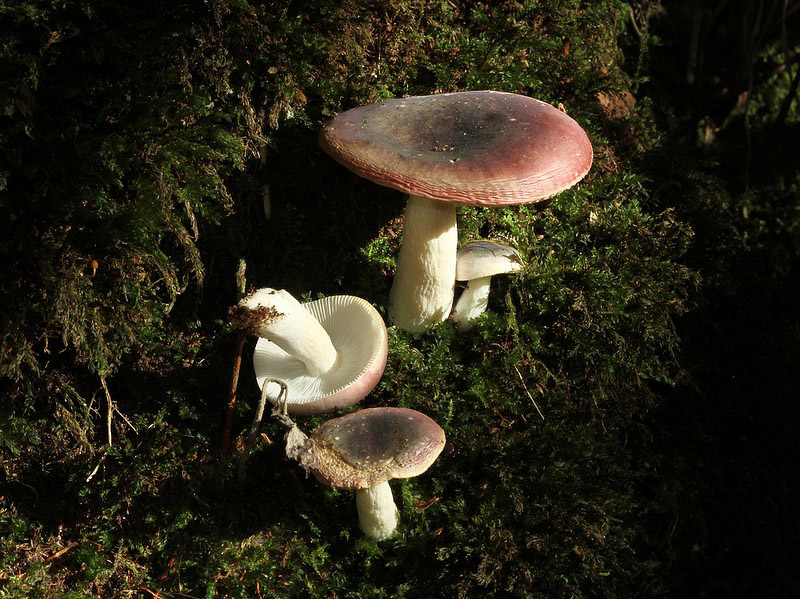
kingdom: Fungi
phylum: Basidiomycota
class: Agaricomycetes
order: Russulales
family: Russulaceae
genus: Russula
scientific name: Russula alnetorum
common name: elle-skørhat
